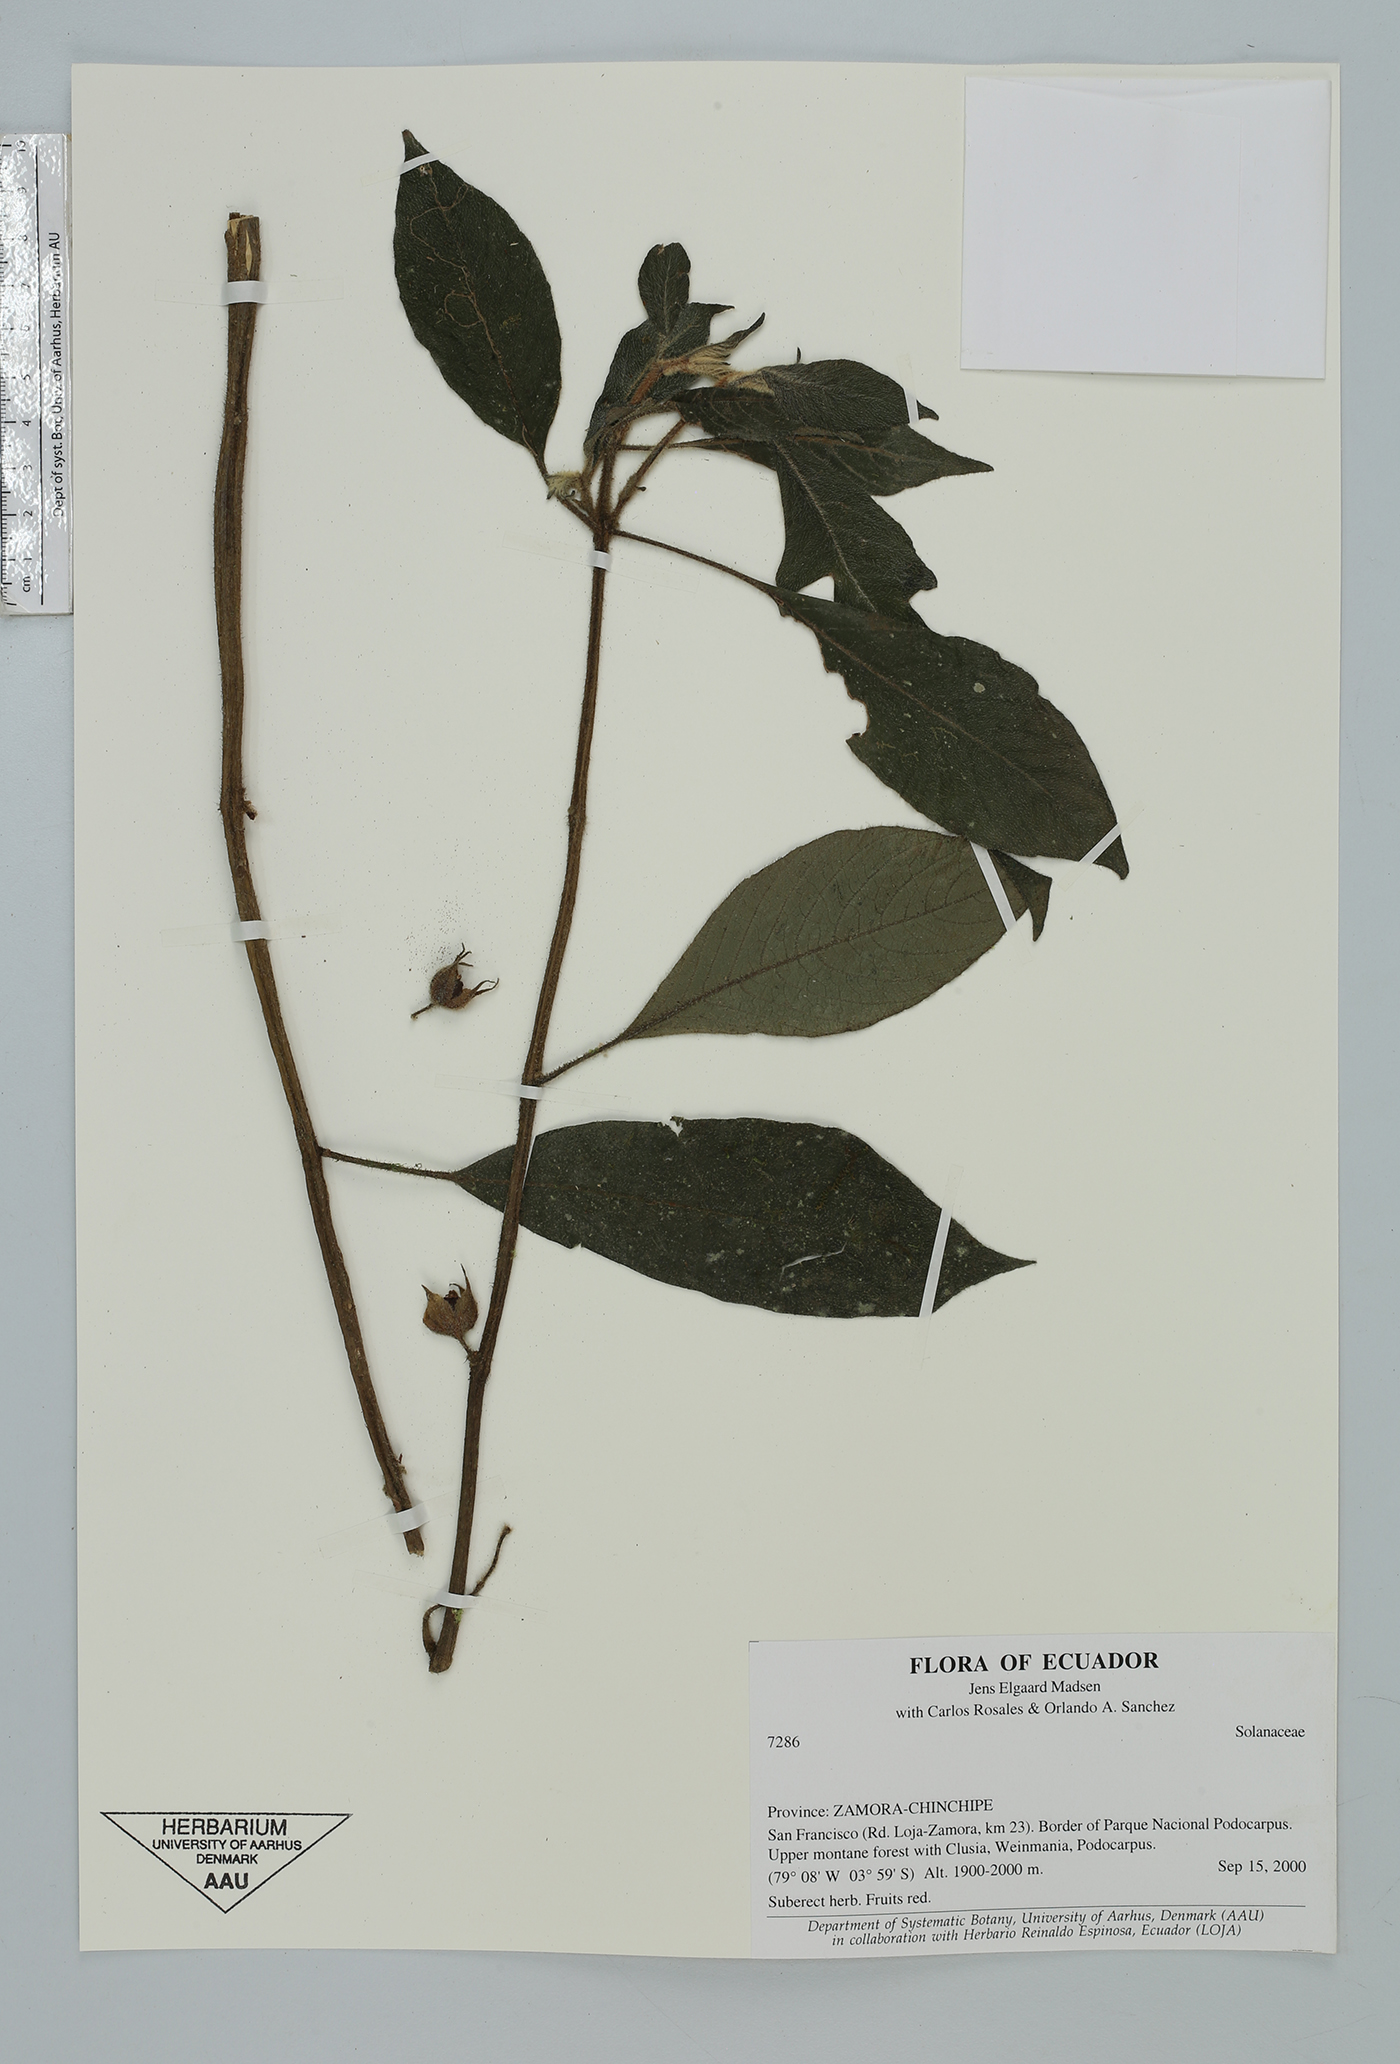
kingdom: Plantae
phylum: Tracheophyta
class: Magnoliopsida
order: Solanales
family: Solanaceae
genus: Lycianthes
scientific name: Lycianthes
